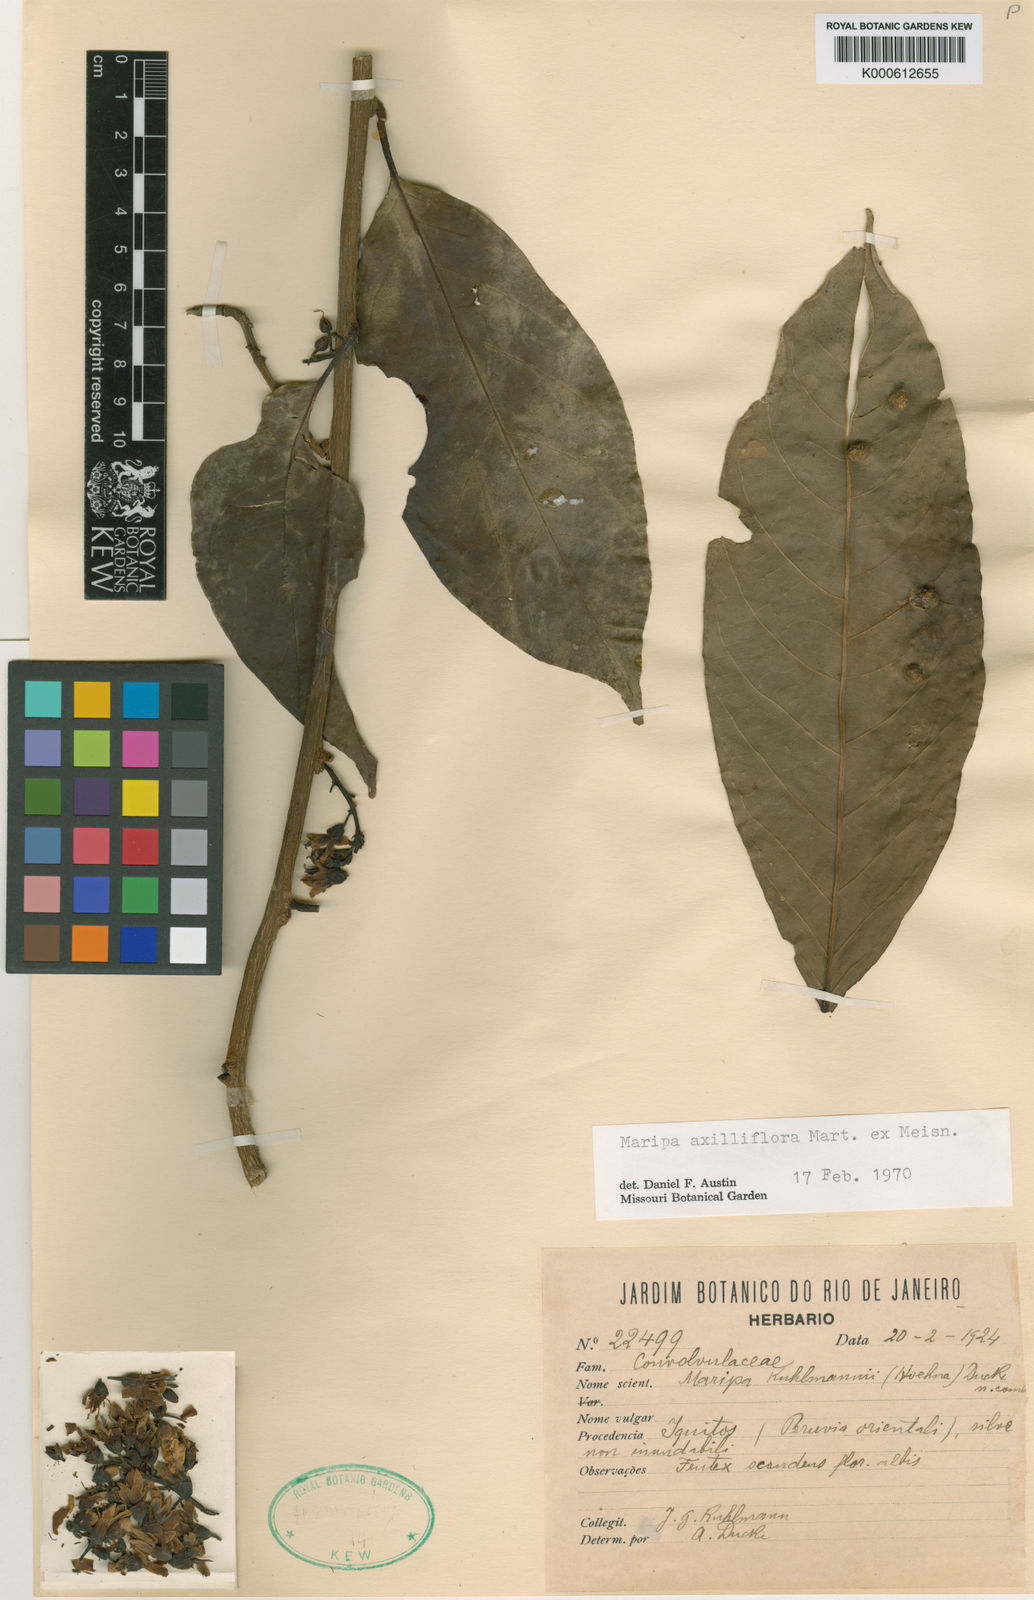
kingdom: Plantae
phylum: Tracheophyta
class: Magnoliopsida
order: Solanales
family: Convolvulaceae
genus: Maripa
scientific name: Maripa axilliflora
